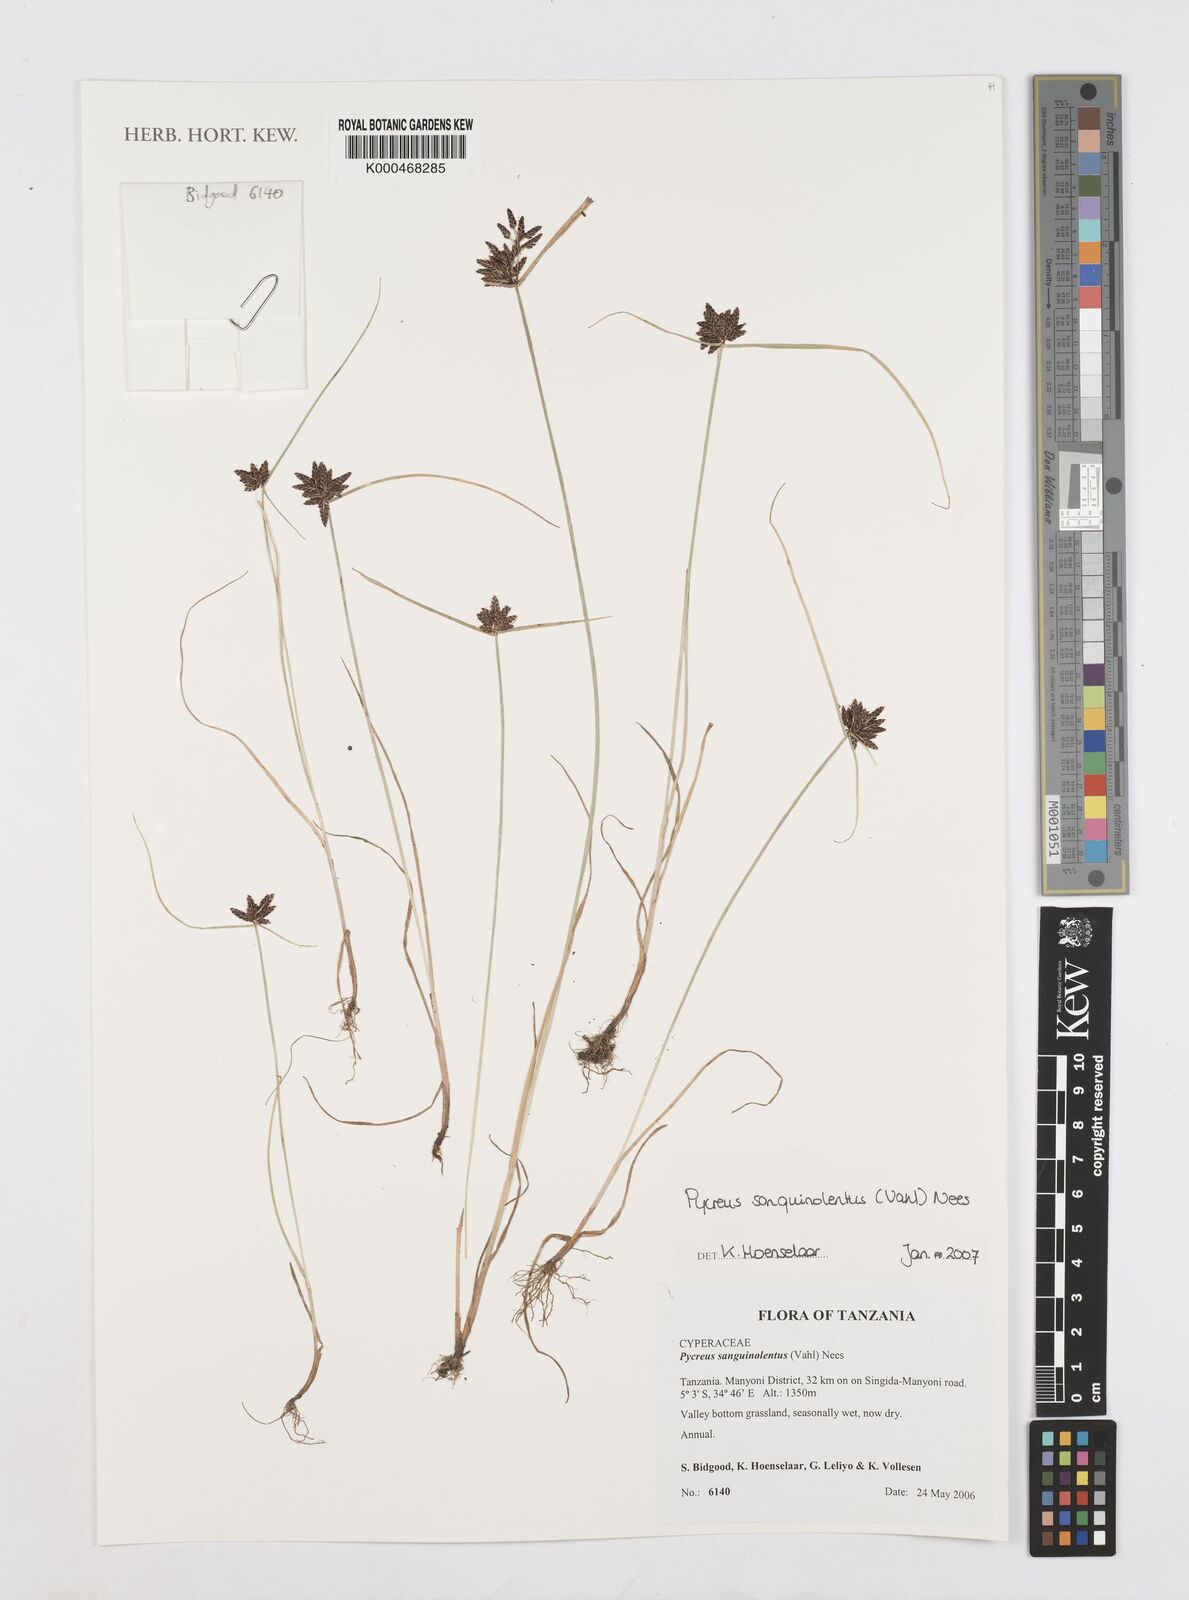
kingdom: Plantae
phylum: Tracheophyta
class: Liliopsida
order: Poales
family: Cyperaceae
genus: Cyperus
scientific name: Cyperus sanguinolentus
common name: Purpleglume flatsedge
